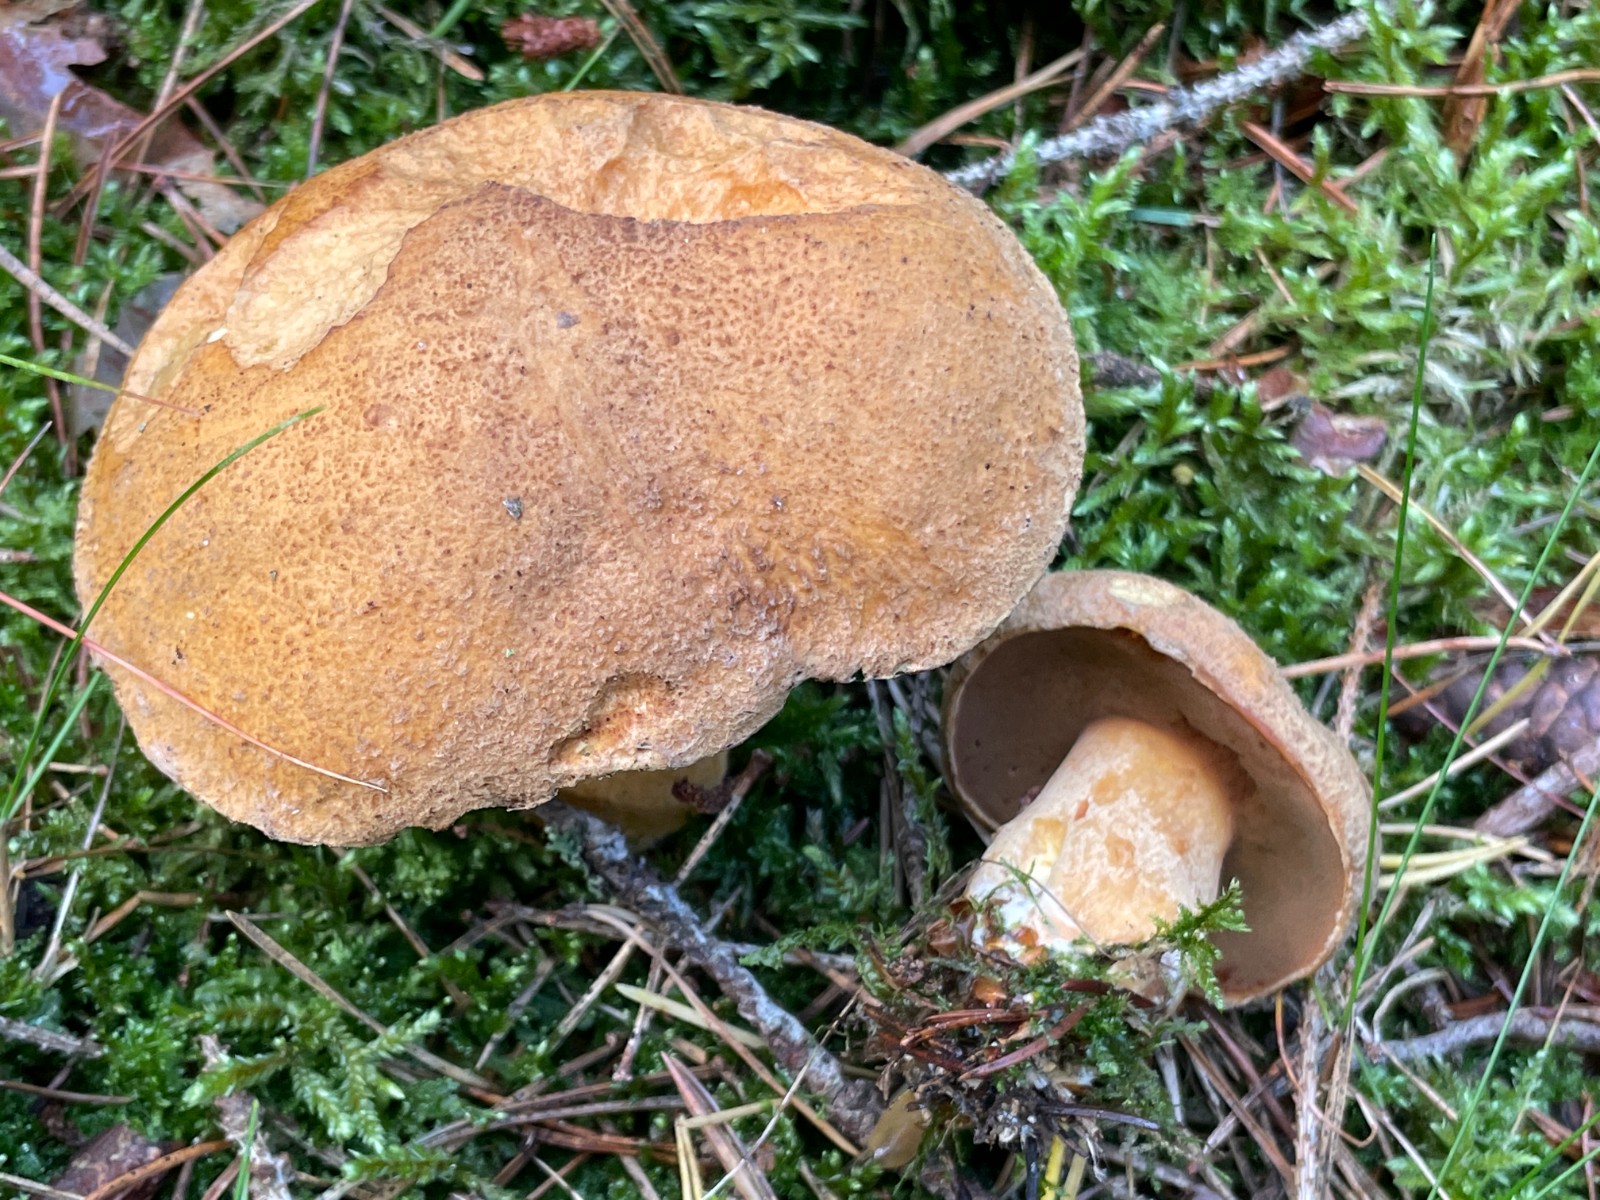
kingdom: Fungi
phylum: Basidiomycota
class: Agaricomycetes
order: Boletales
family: Suillaceae
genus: Suillus
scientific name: Suillus variegatus
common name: broget slimrørhat
